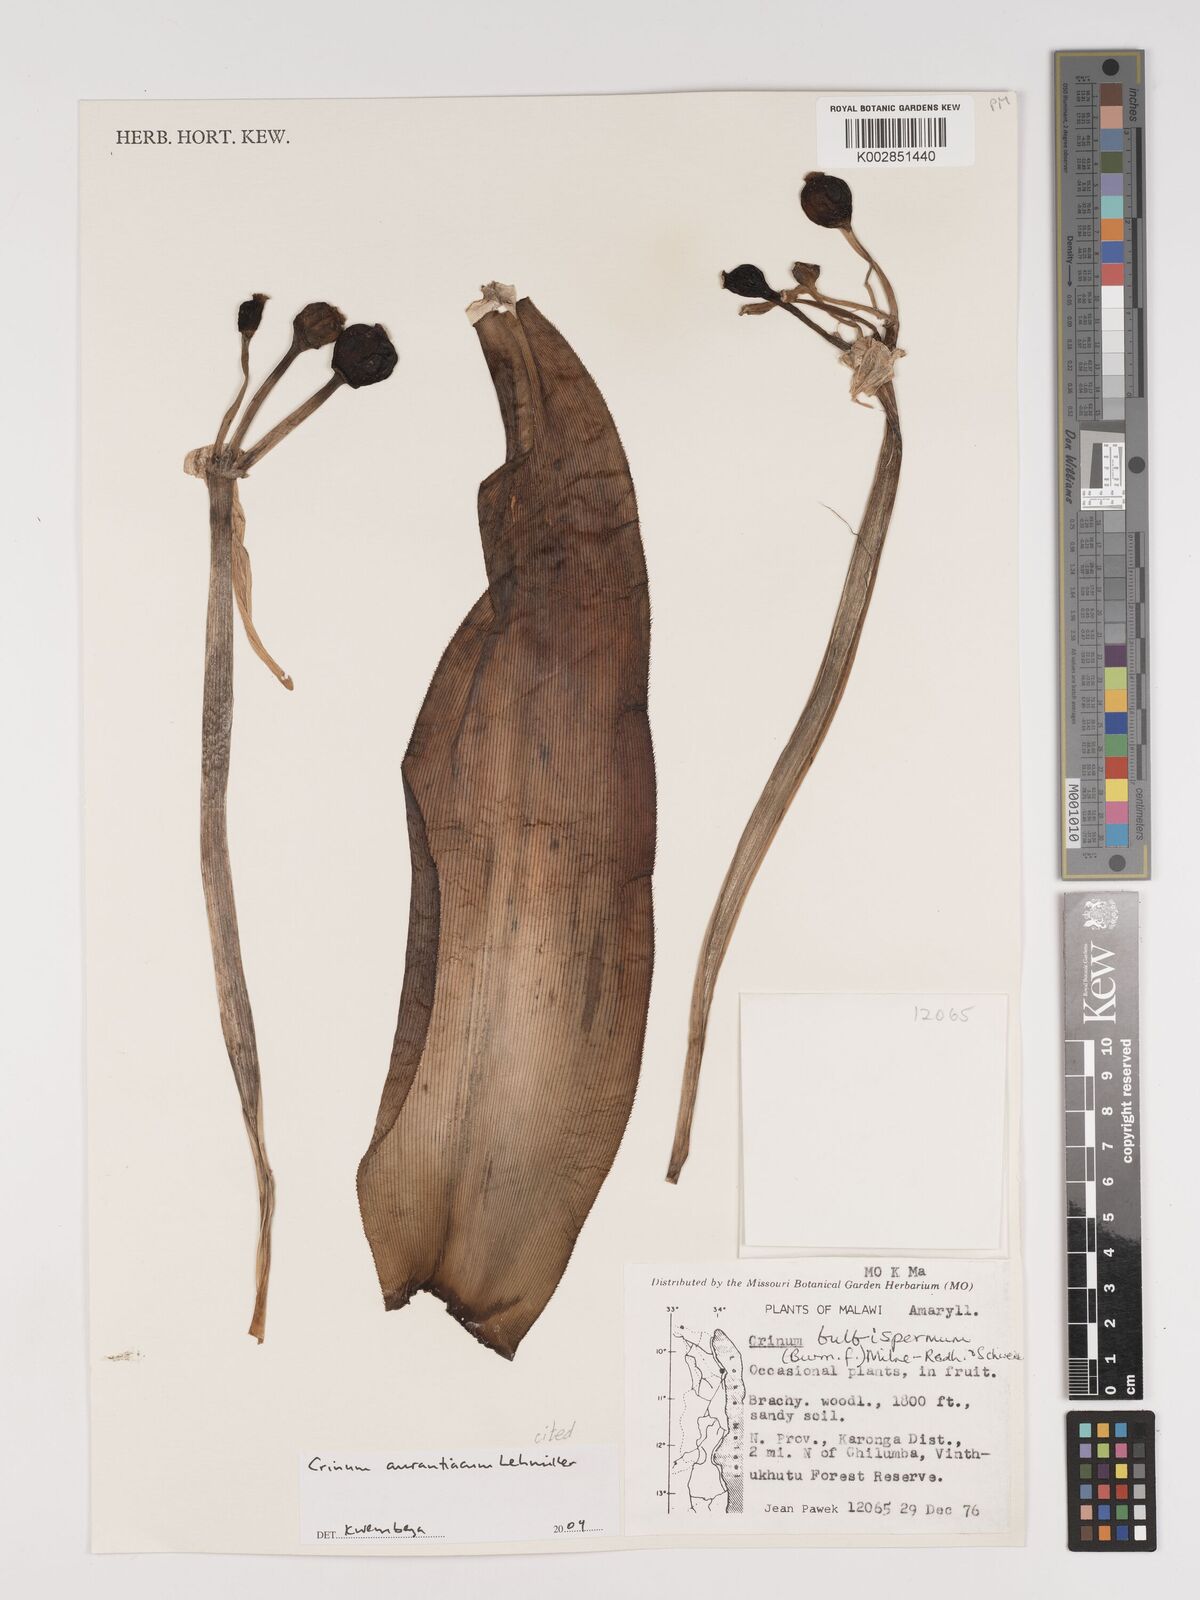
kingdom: Plantae
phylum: Tracheophyta
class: Liliopsida
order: Asparagales
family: Amaryllidaceae
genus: Crinum
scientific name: Crinum aurantiacum
